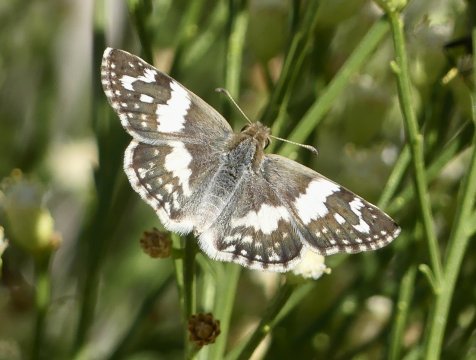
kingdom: Animalia
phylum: Arthropoda
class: Insecta
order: Lepidoptera
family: Hesperiidae
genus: Heliopyrgus
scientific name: Heliopyrgus domicella
